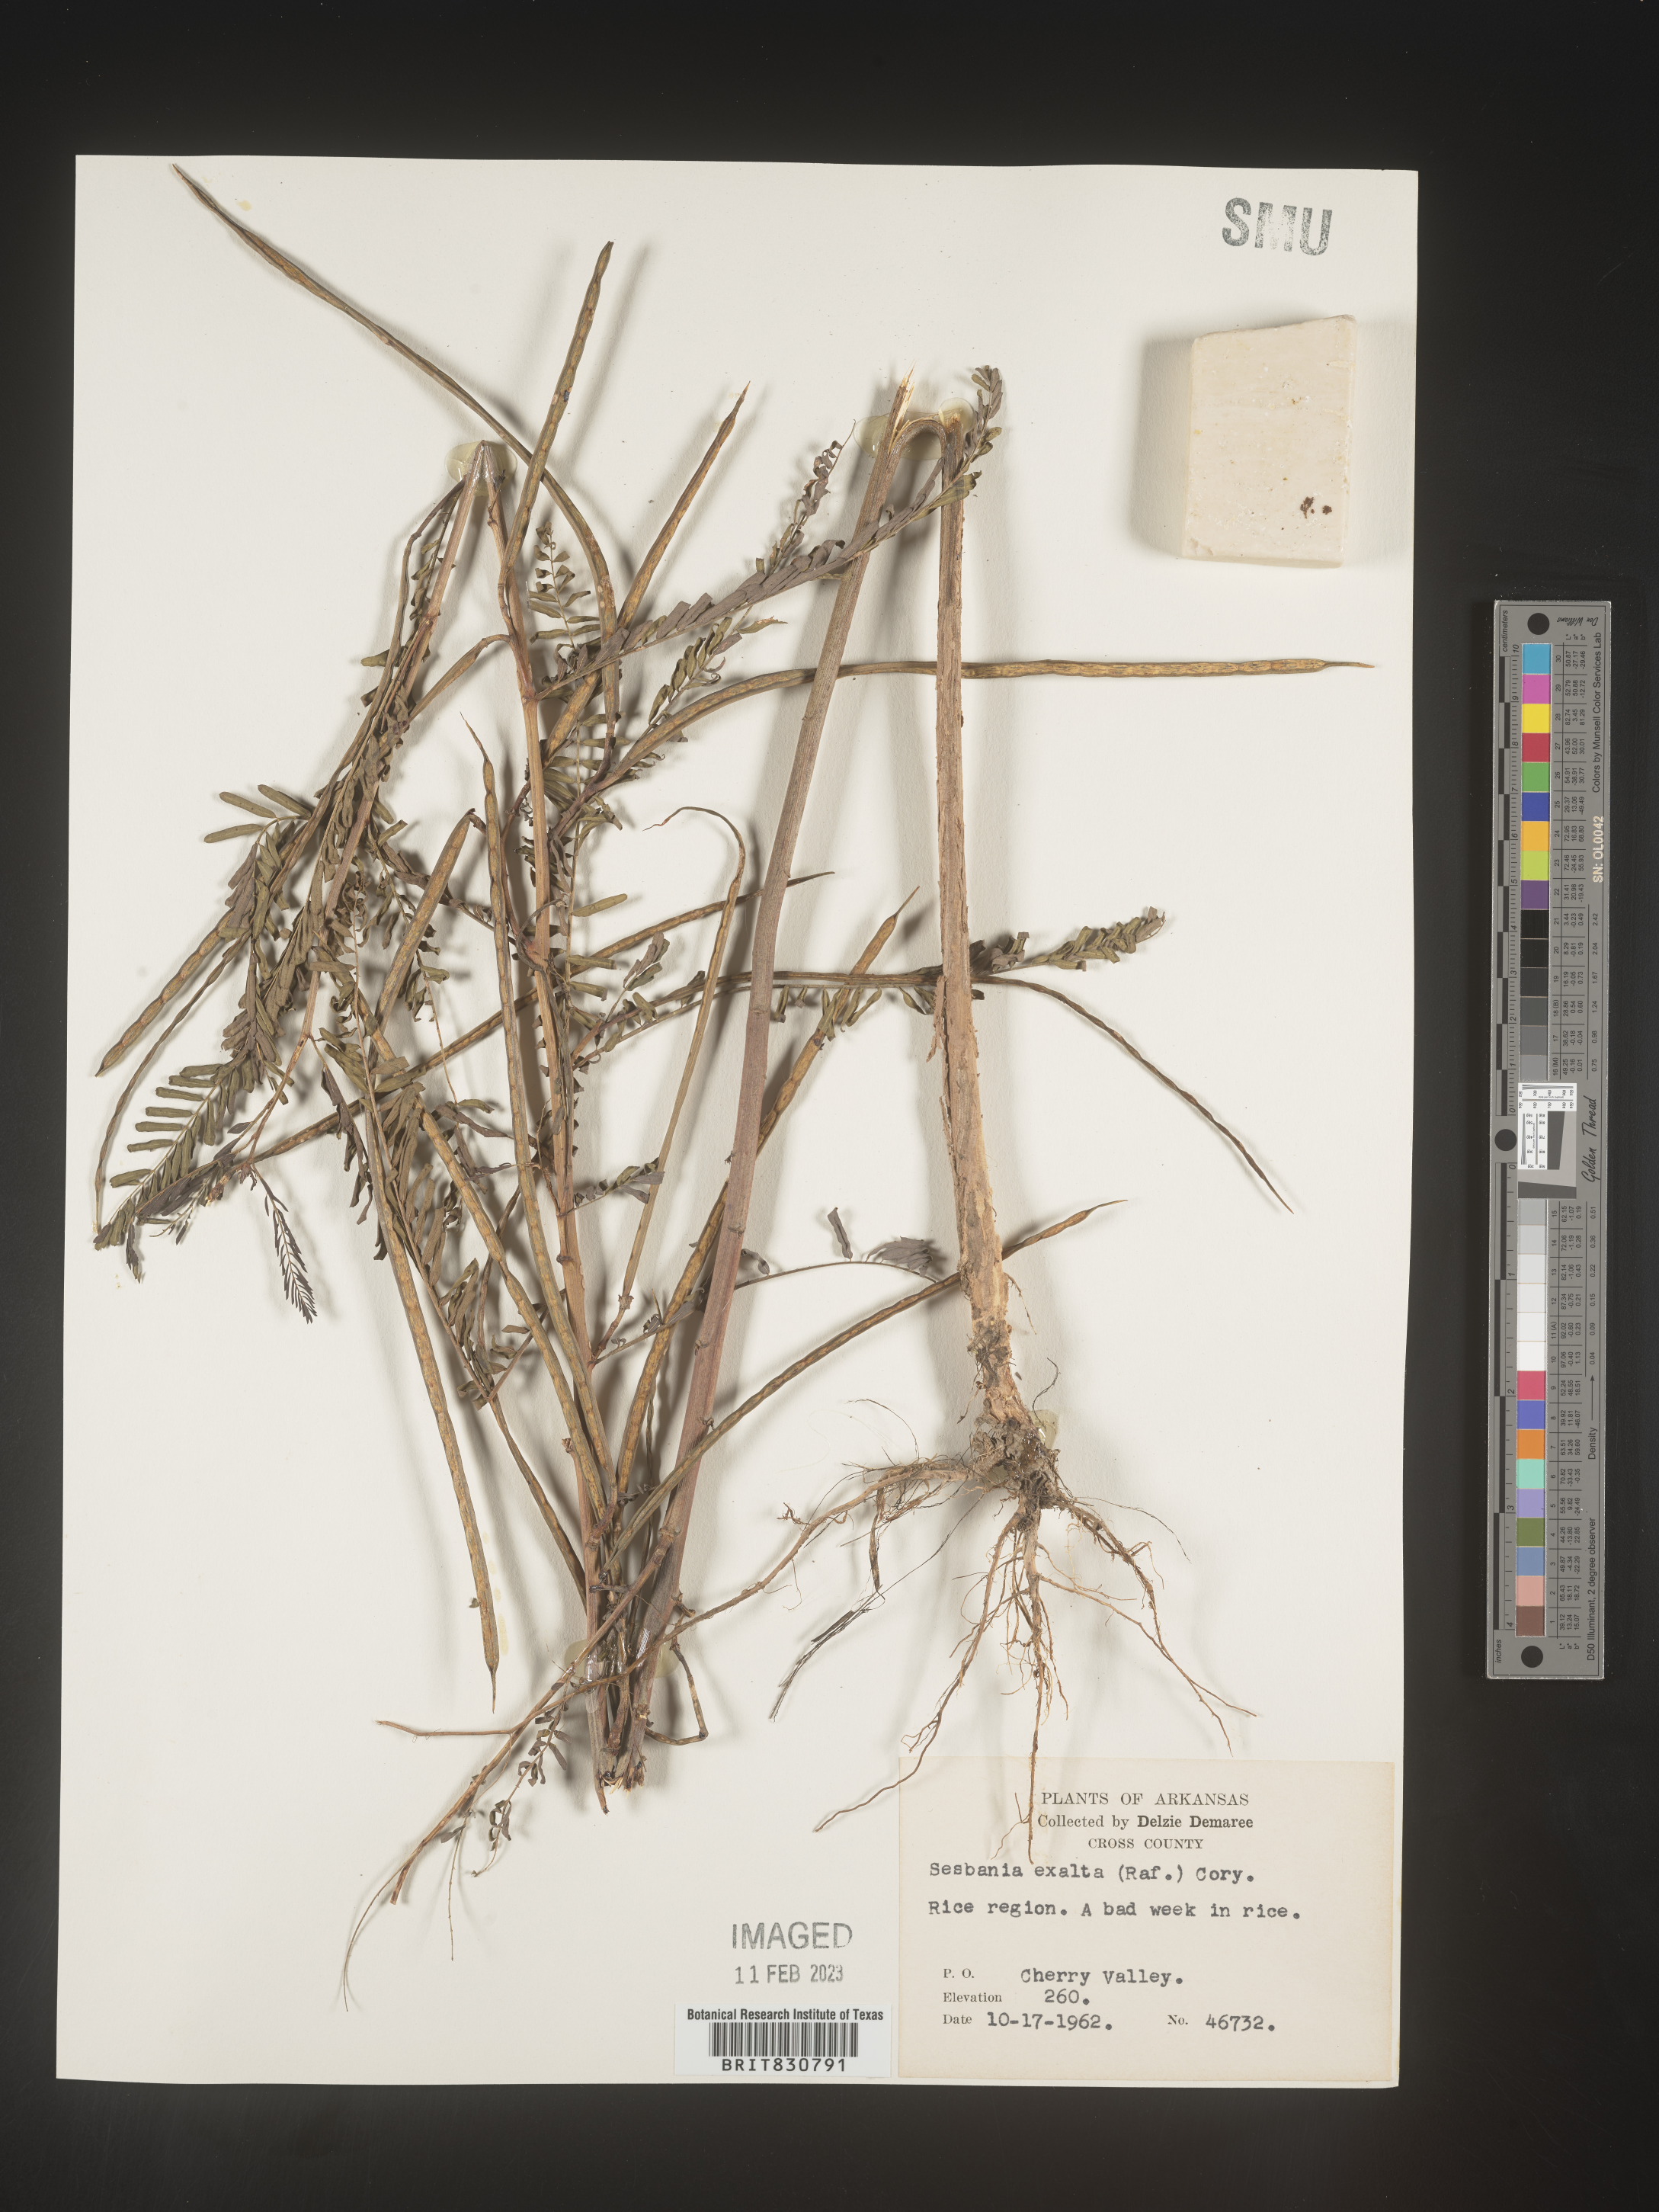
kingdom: Plantae
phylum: Tracheophyta
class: Magnoliopsida
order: Fabales
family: Fabaceae
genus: Sesbania
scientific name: Sesbania vesicaria
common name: Bagpod
